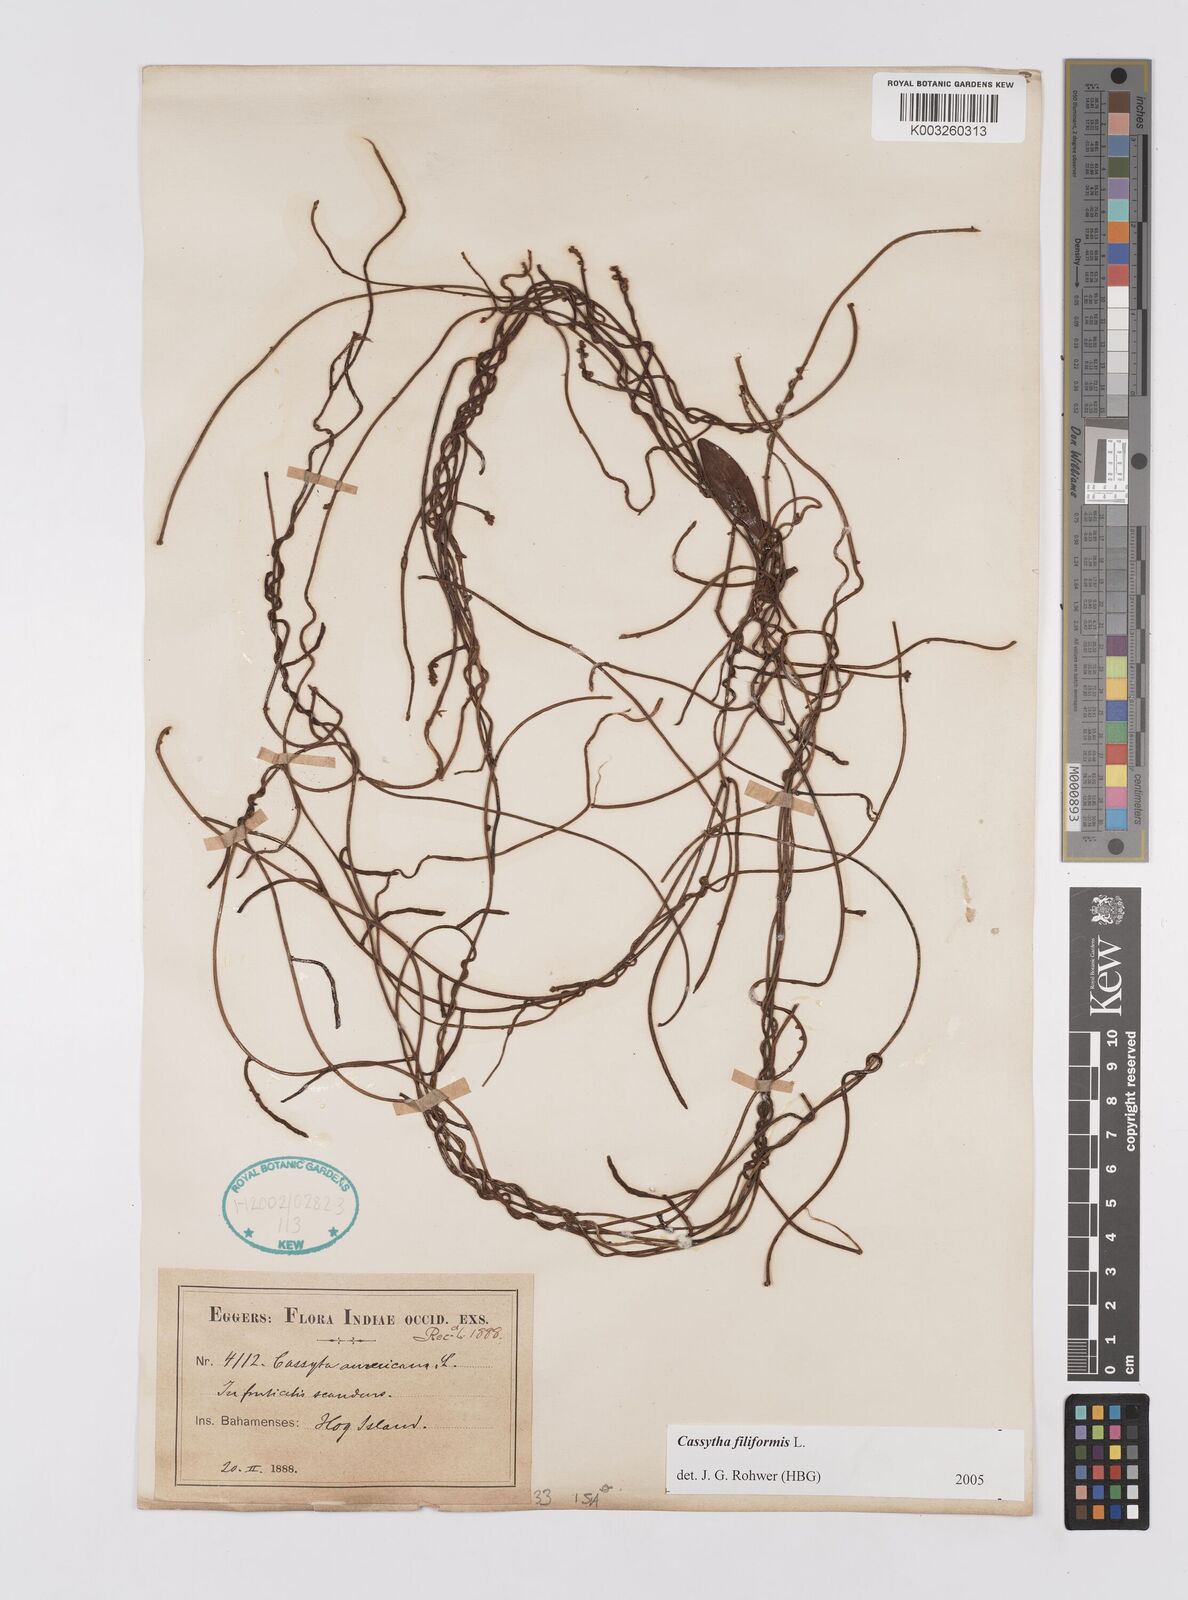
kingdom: Plantae
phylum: Tracheophyta
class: Magnoliopsida
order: Laurales
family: Lauraceae
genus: Cassytha
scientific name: Cassytha filiformis
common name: Dodder-laurel
